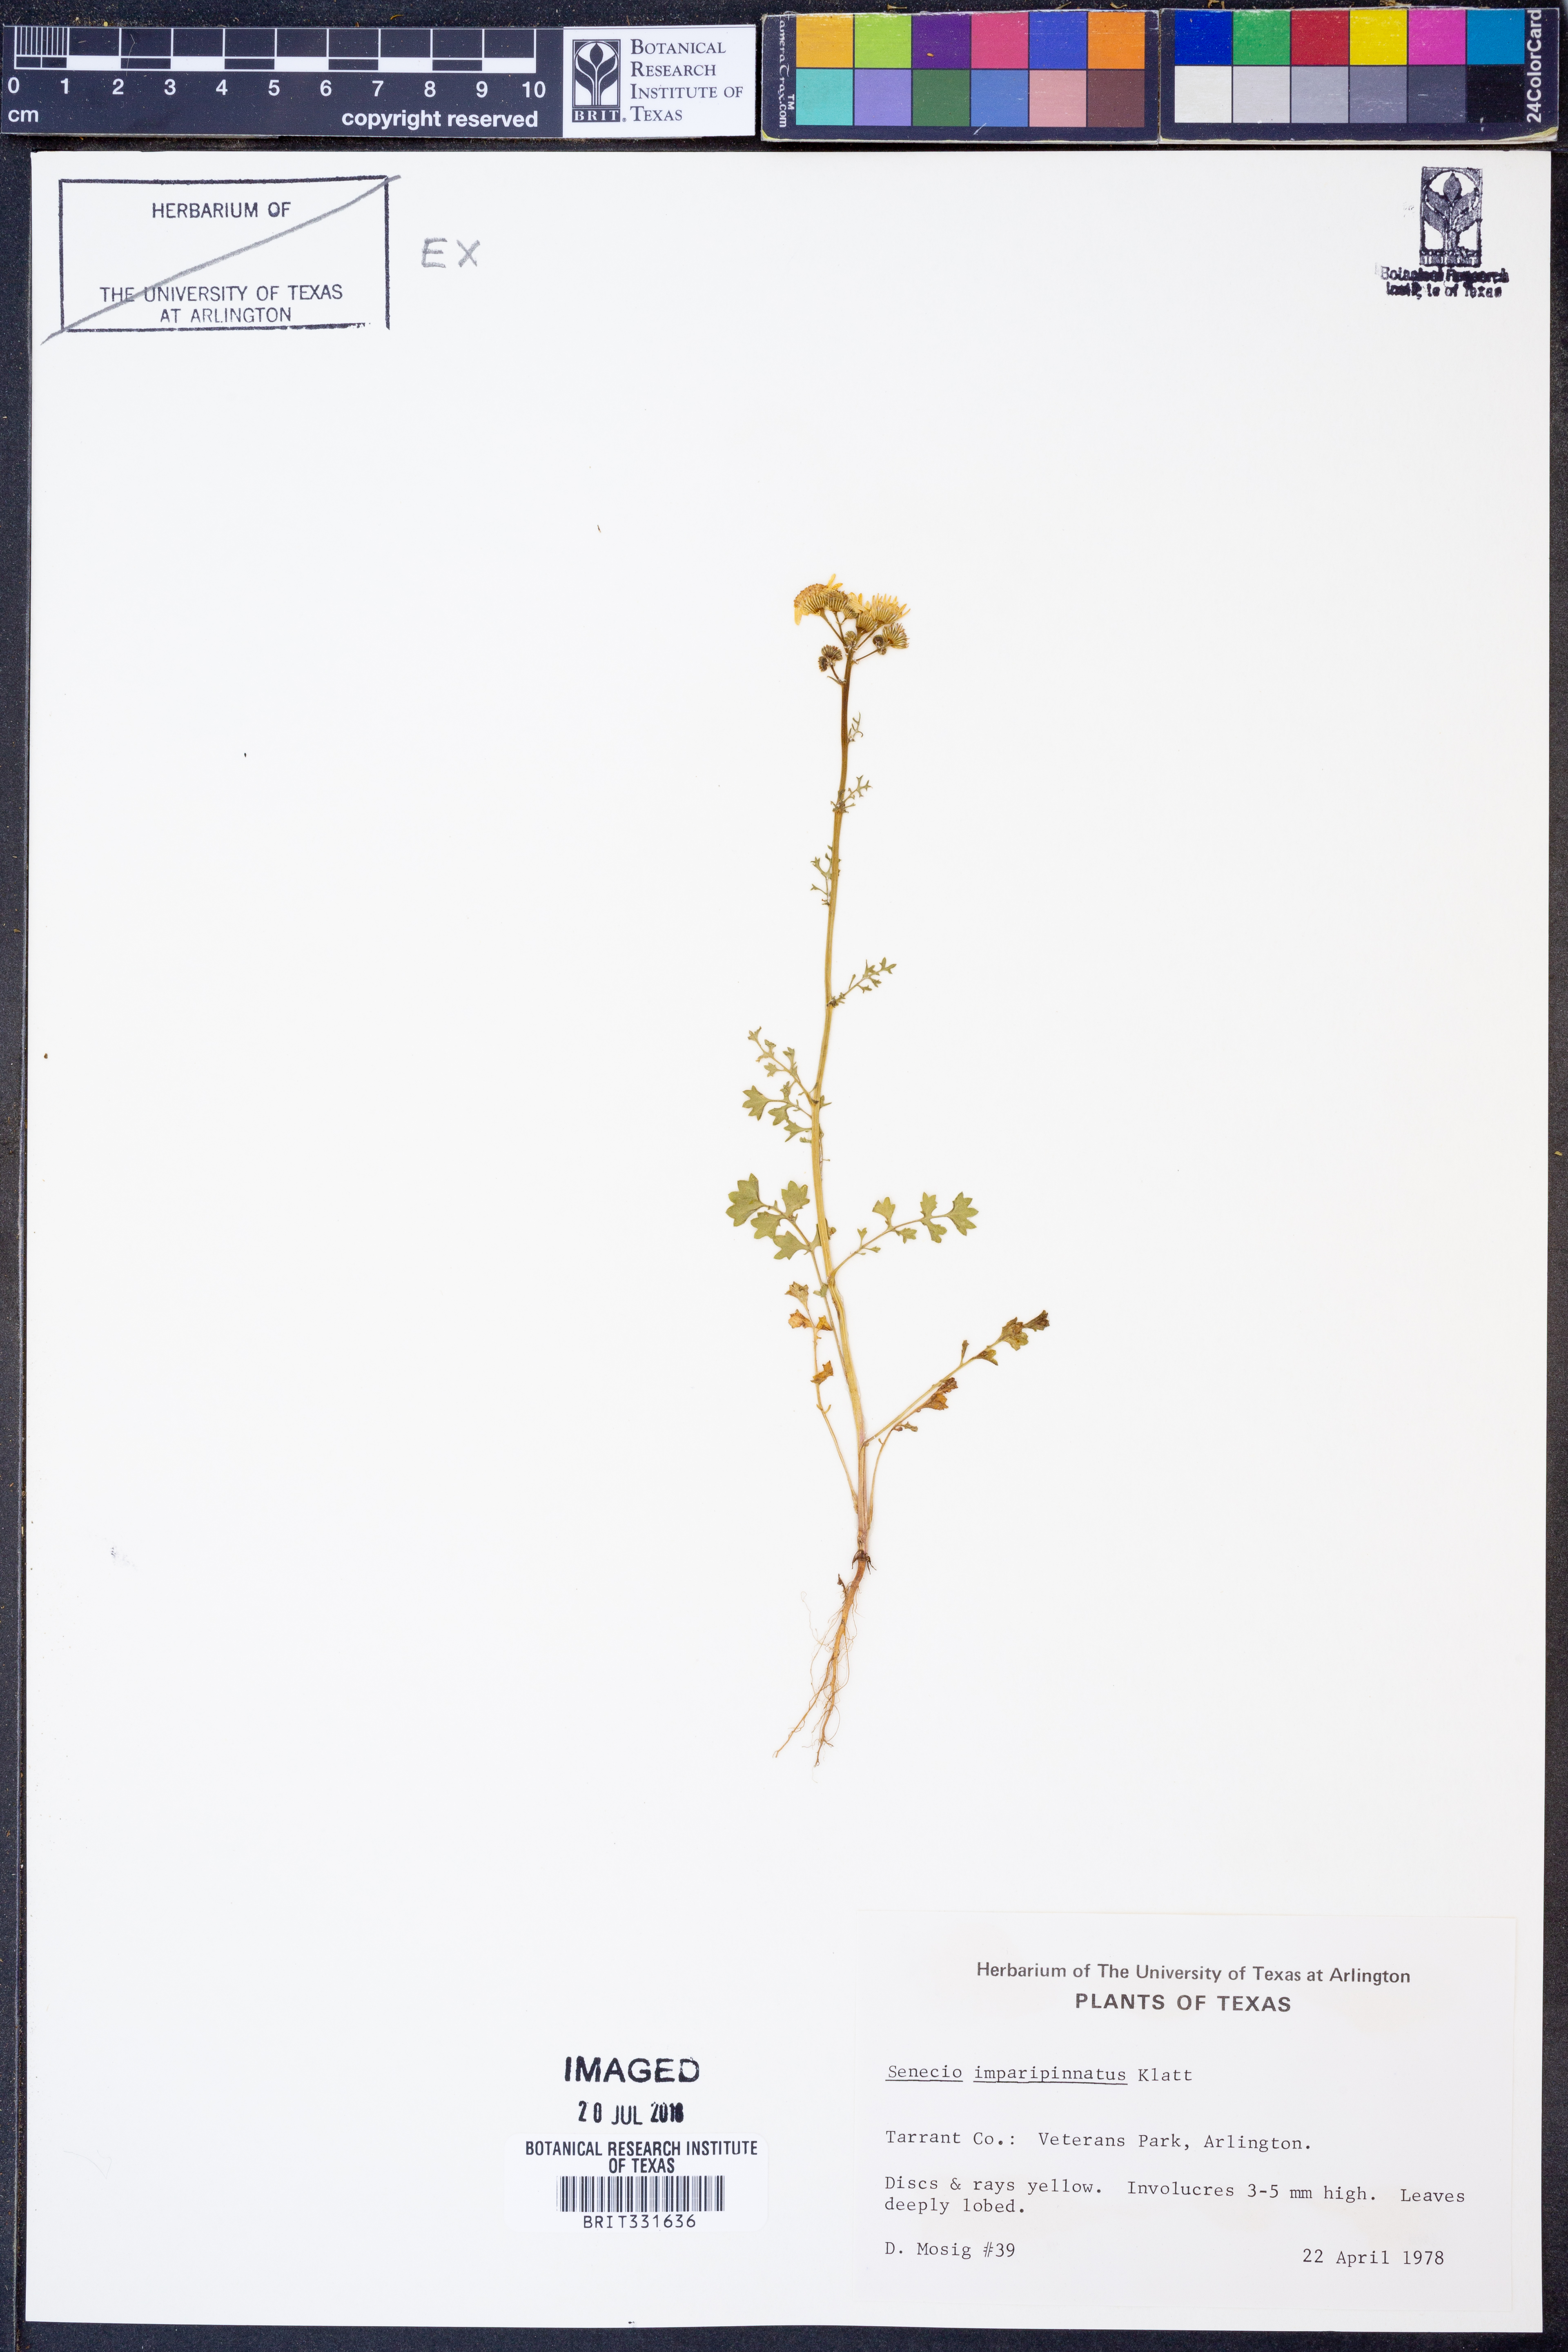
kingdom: Plantae
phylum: Tracheophyta
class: Magnoliopsida
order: Asterales
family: Asteraceae
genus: Packera
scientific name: Packera tampicana
